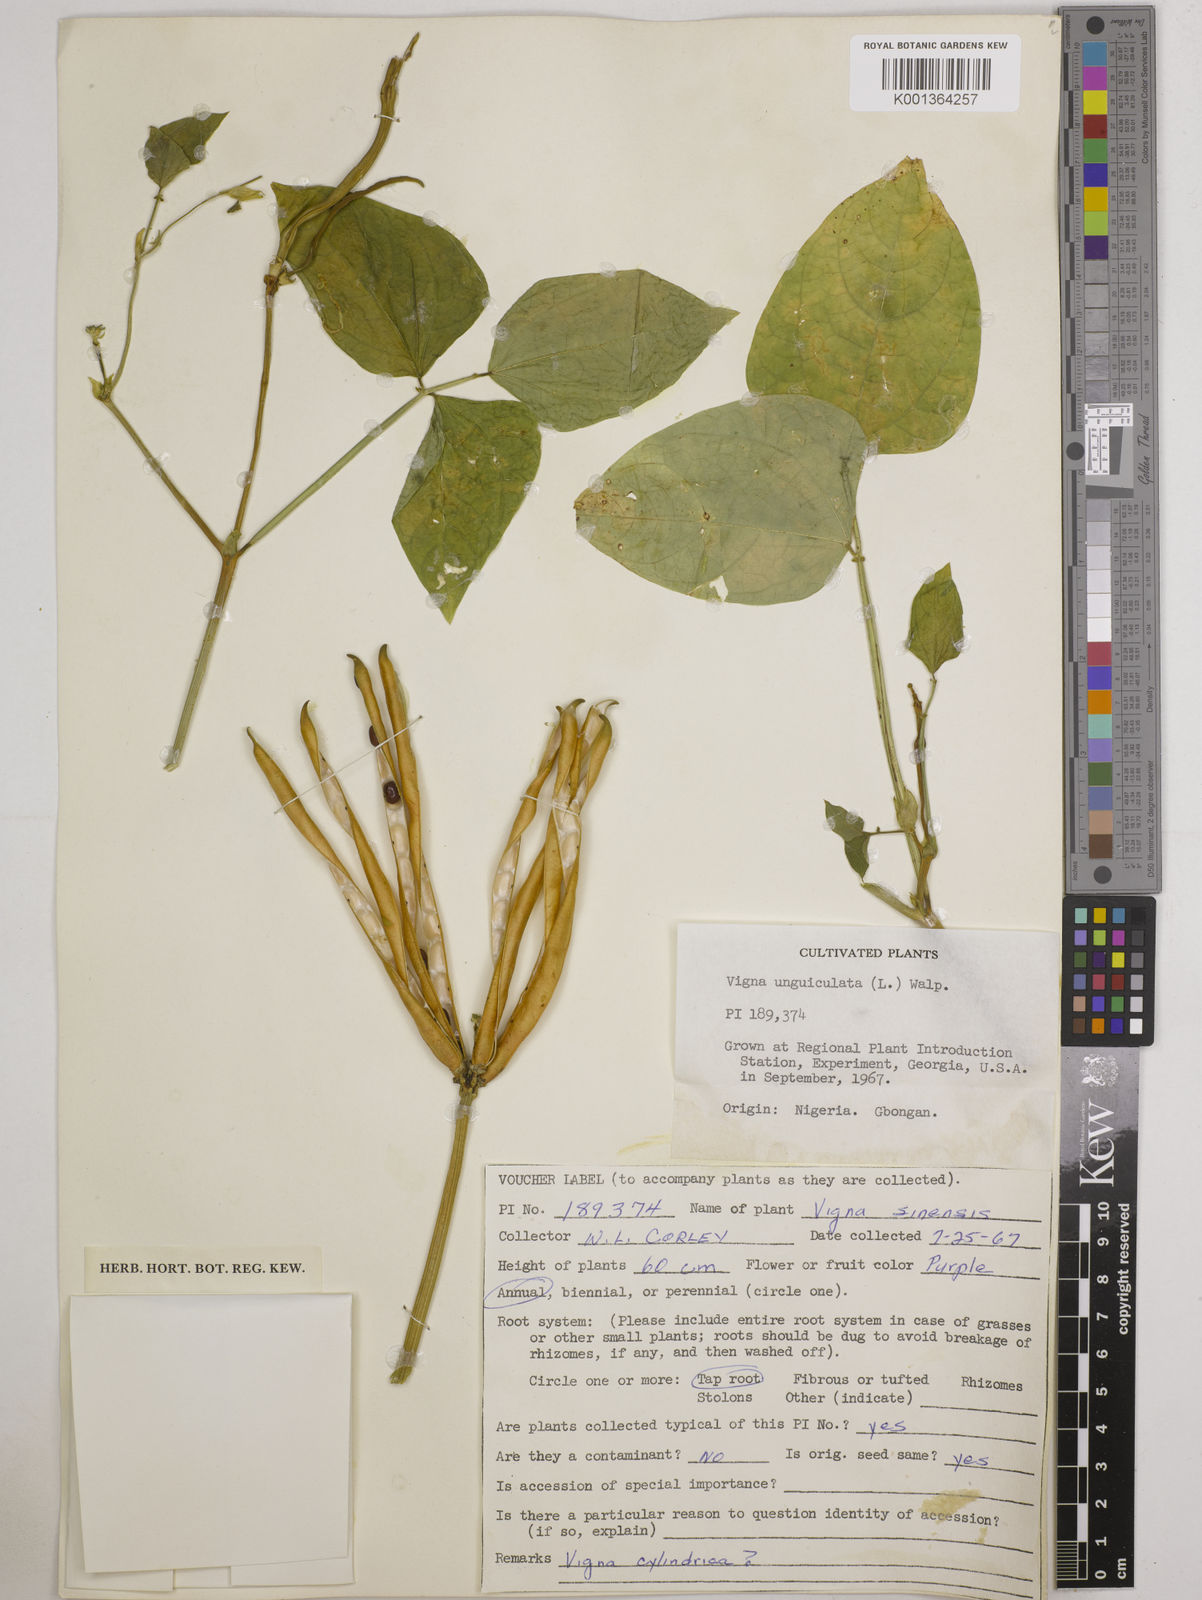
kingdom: Plantae
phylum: Tracheophyta
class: Magnoliopsida
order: Fabales
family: Fabaceae
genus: Vigna
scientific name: Vigna
